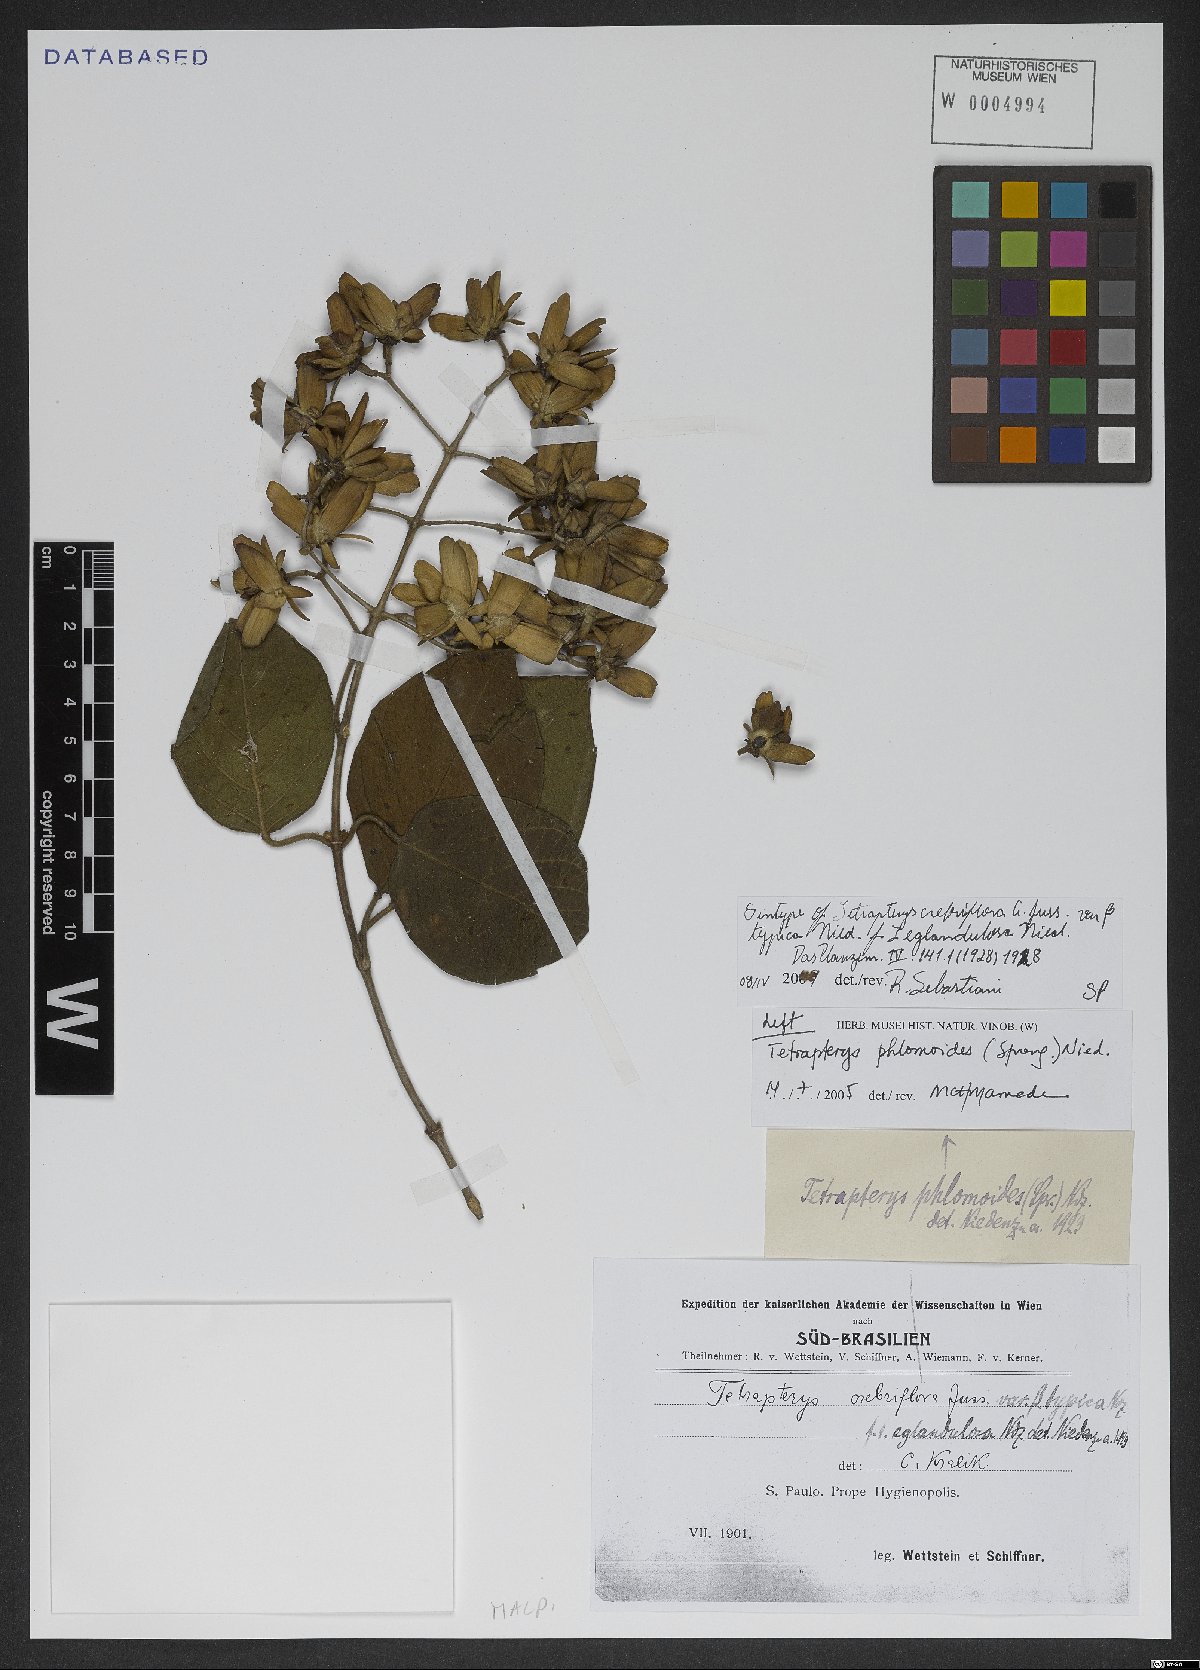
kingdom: Plantae
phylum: Tracheophyta
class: Magnoliopsida
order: Malpighiales
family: Malpighiaceae
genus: Tetrapterys
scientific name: Tetrapterys phlomoides
